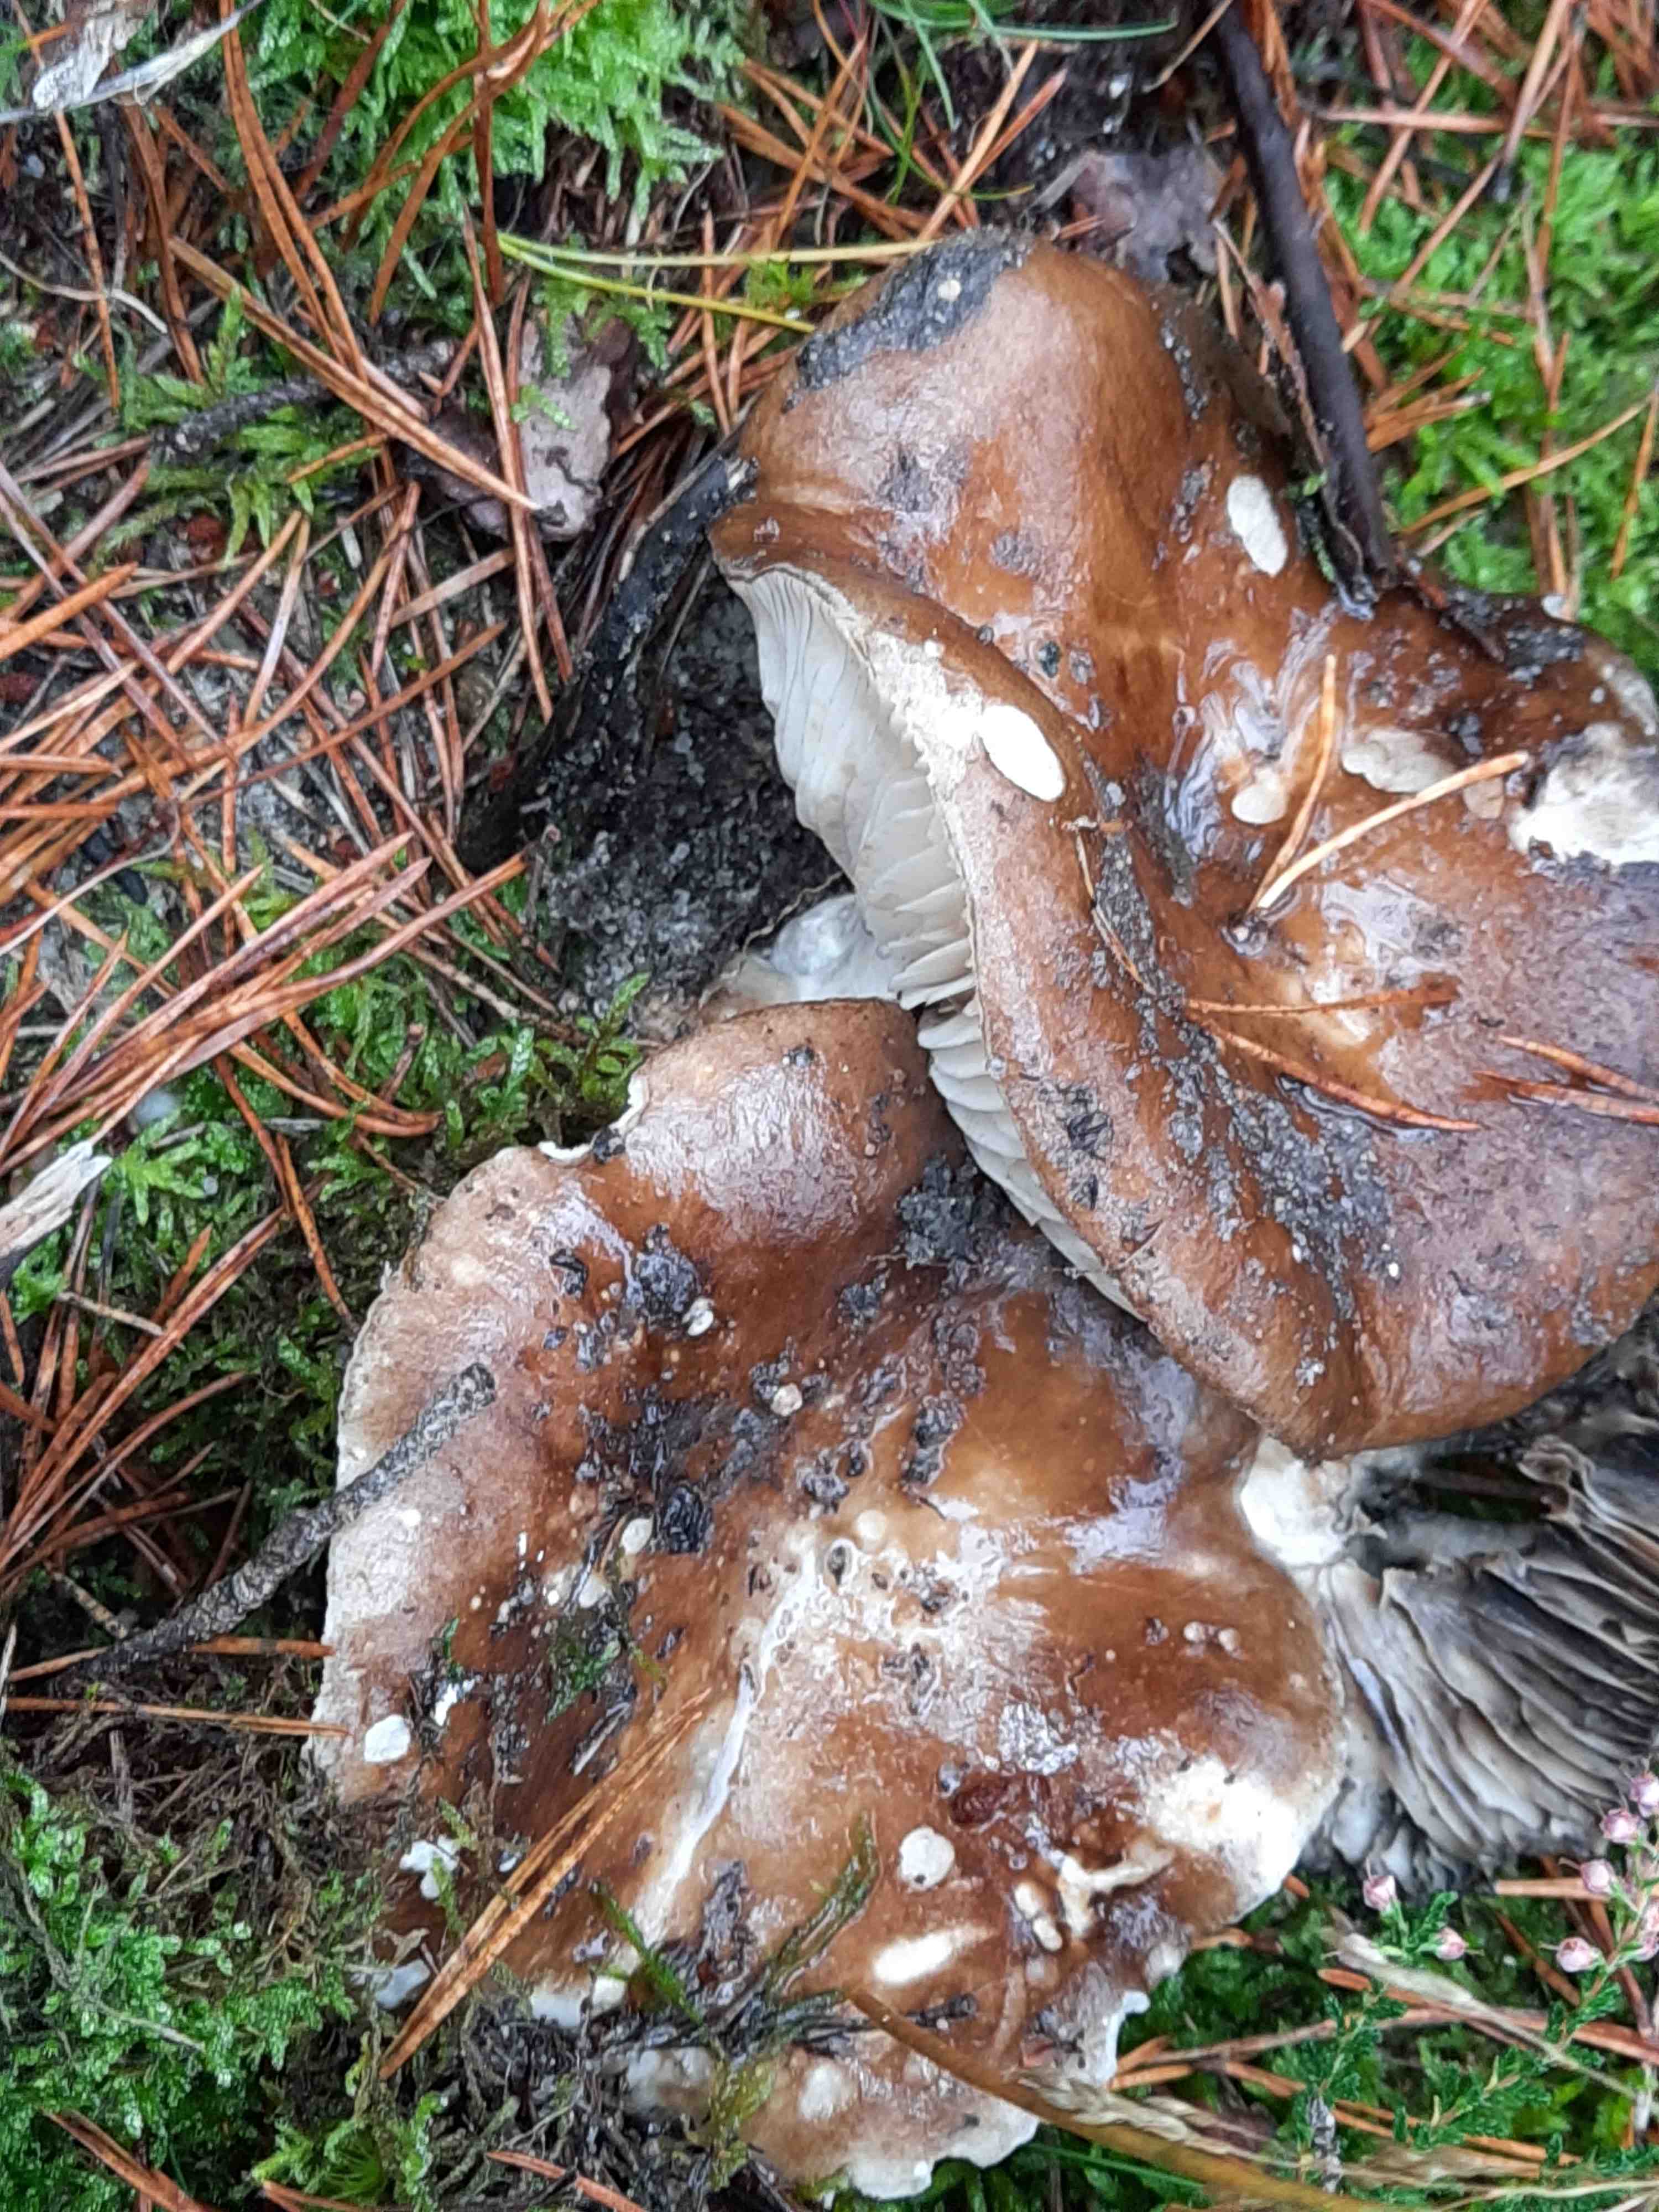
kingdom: Fungi
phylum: Basidiomycota
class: Agaricomycetes
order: Russulales
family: Russulaceae
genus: Russula
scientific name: Russula adusta
